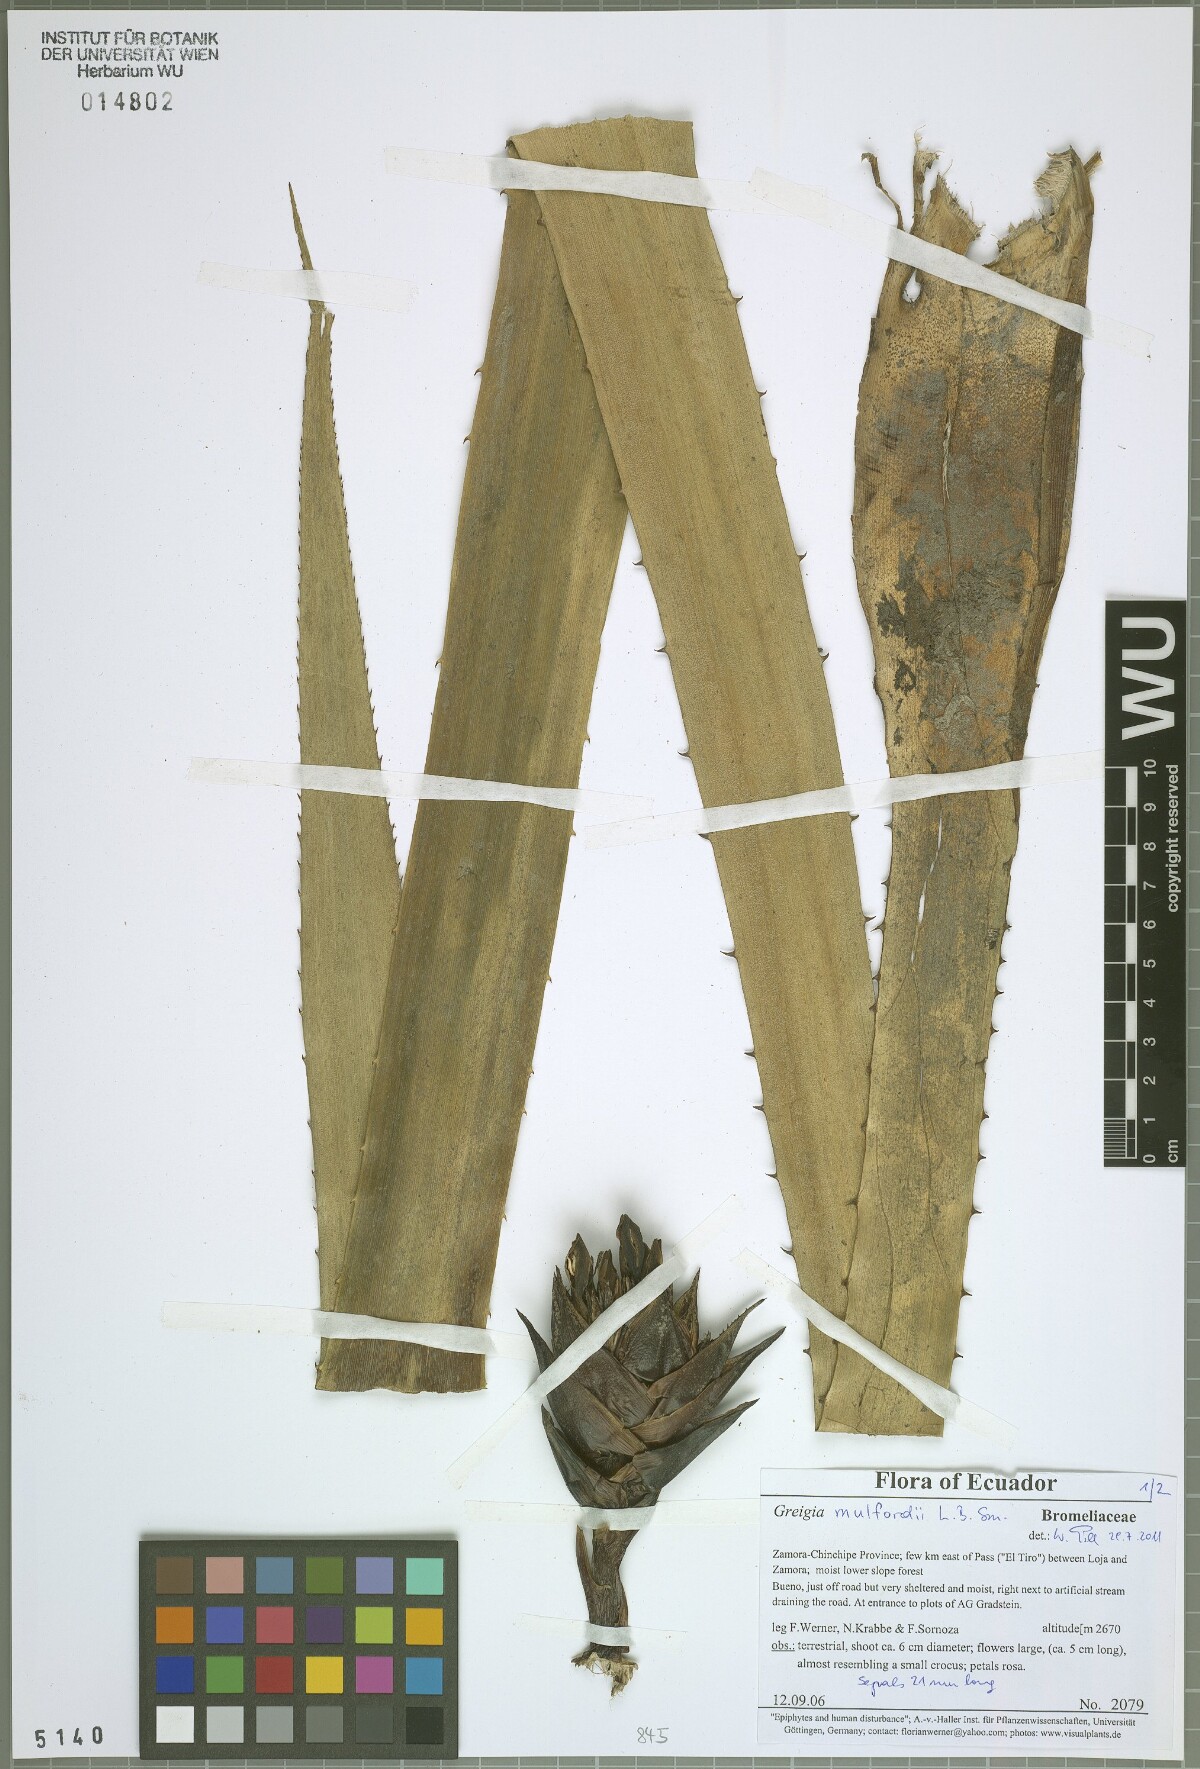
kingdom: Plantae
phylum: Tracheophyta
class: Liliopsida
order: Poales
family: Bromeliaceae
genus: Greigia
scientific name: Greigia mulfordii
